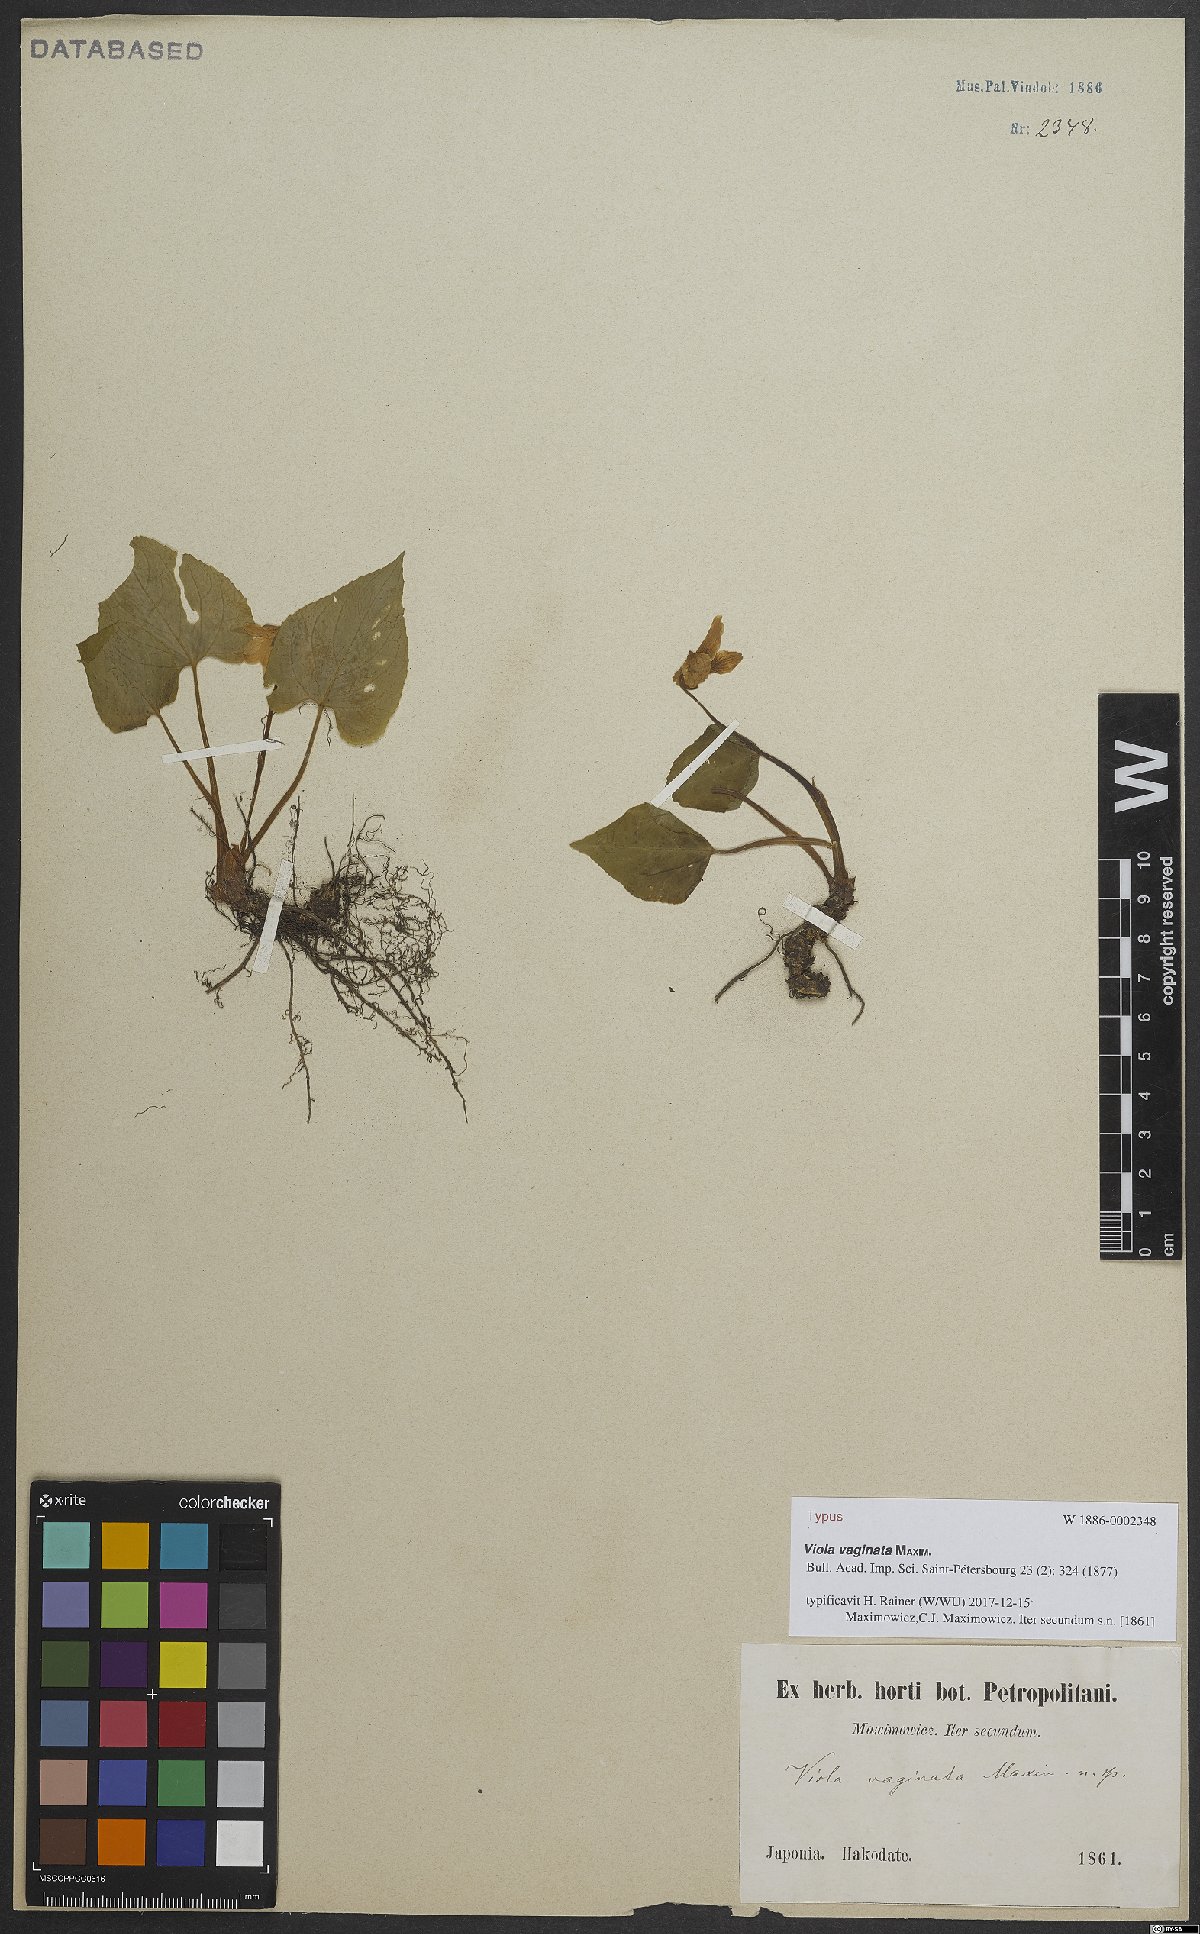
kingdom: Plantae
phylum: Tracheophyta
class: Magnoliopsida
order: Malpighiales
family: Violaceae
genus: Viola
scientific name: Viola vaginata
